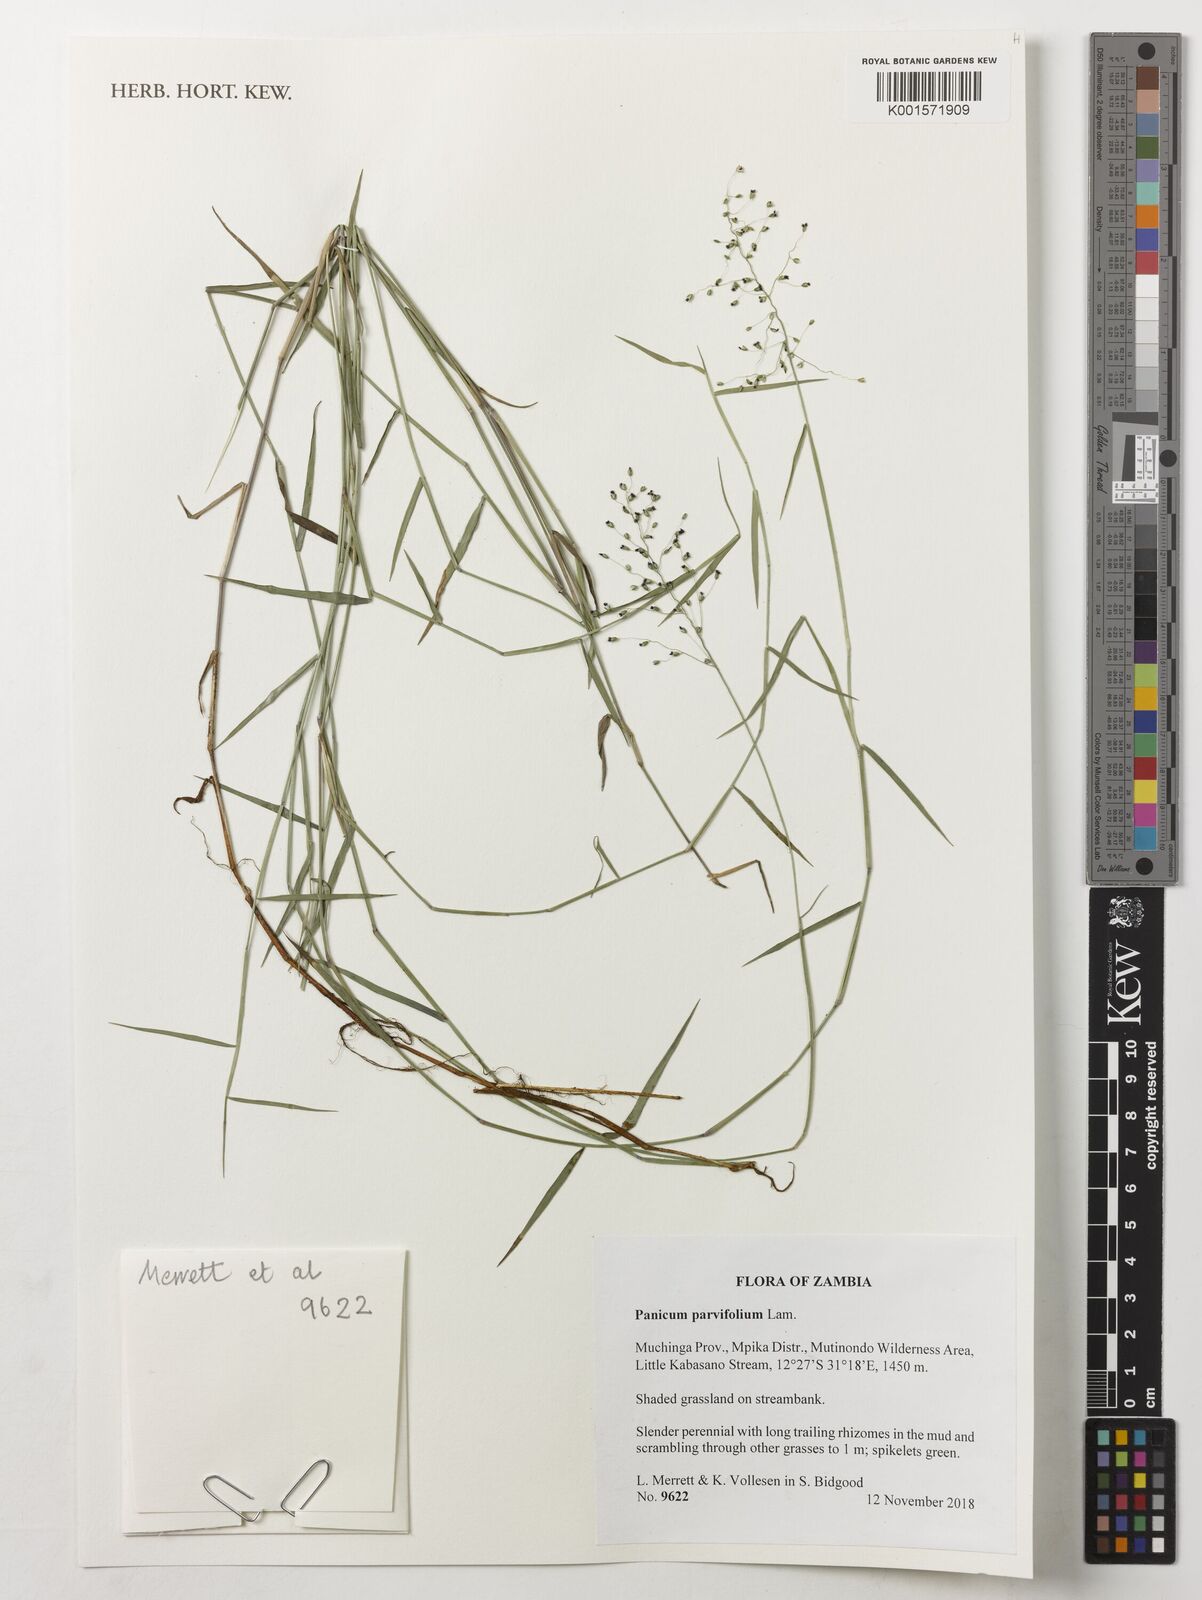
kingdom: Plantae
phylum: Tracheophyta
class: Liliopsida
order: Poales
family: Poaceae
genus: Trichanthecium
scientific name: Trichanthecium parvifolium
